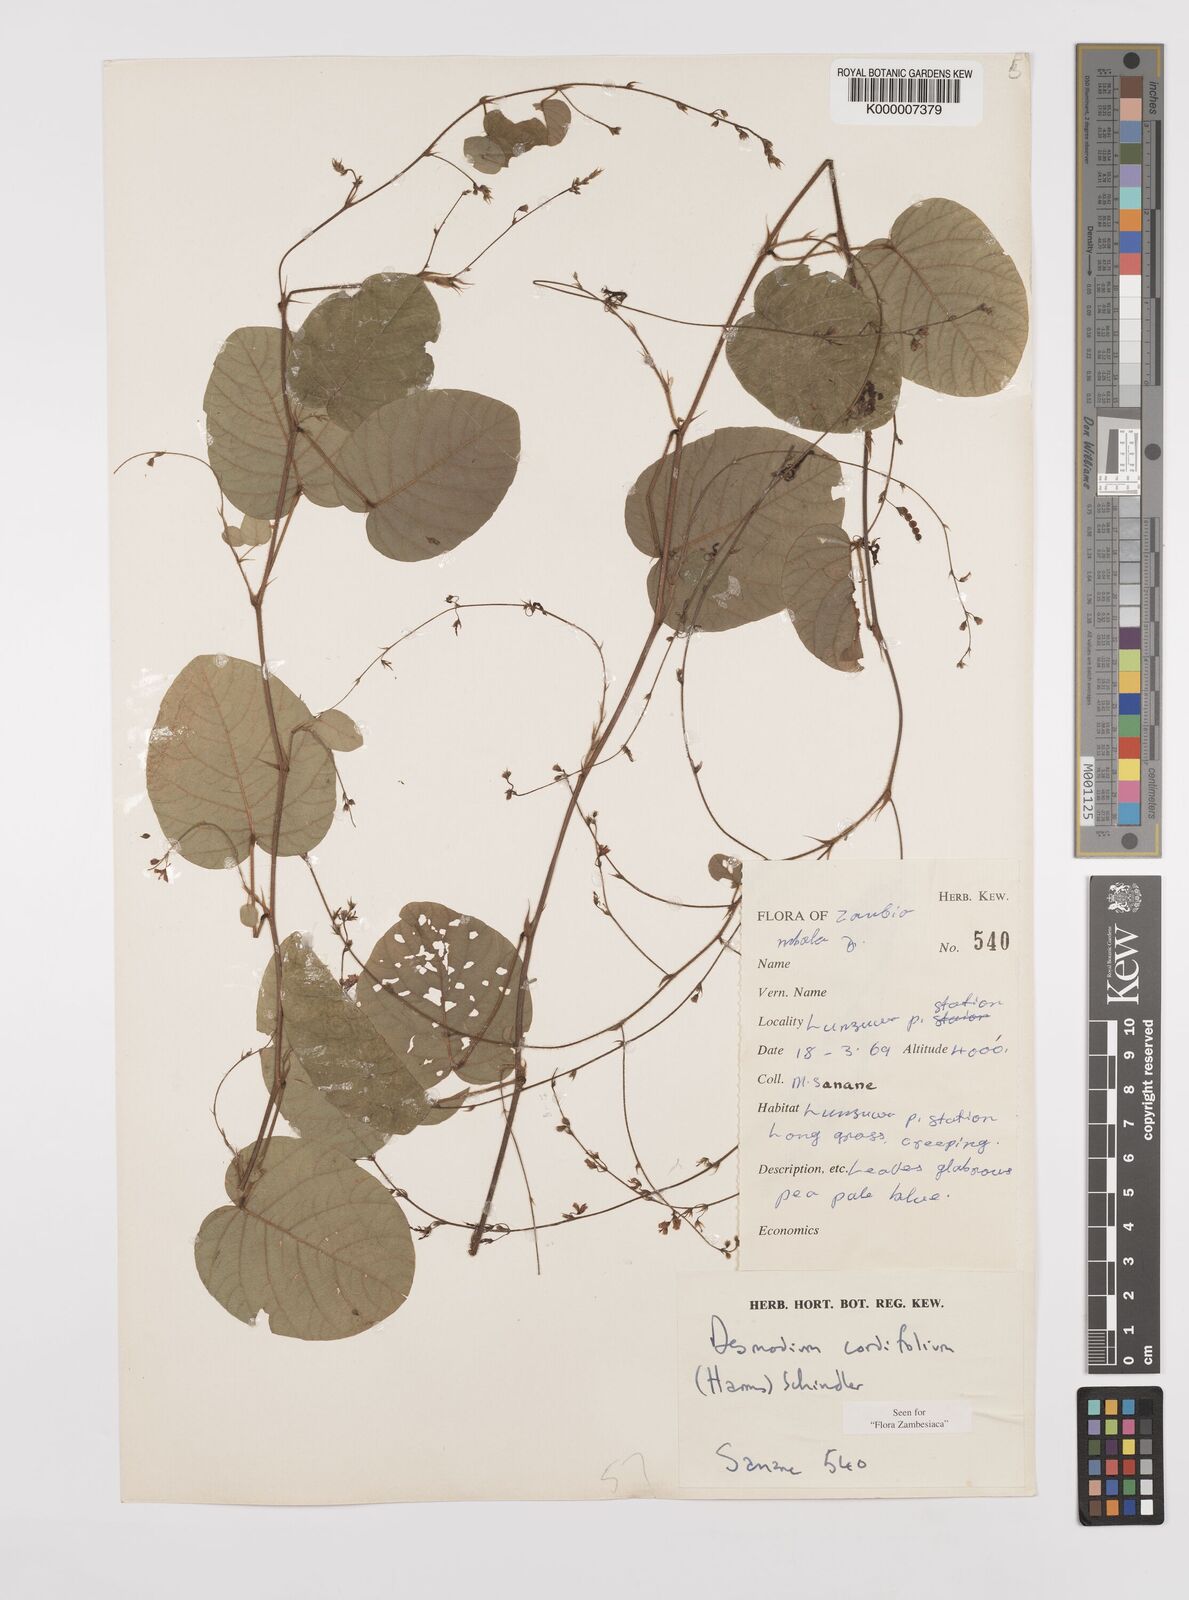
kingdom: Plantae
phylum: Tracheophyta
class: Magnoliopsida
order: Fabales
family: Fabaceae
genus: Grona
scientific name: Grona cordifolia
